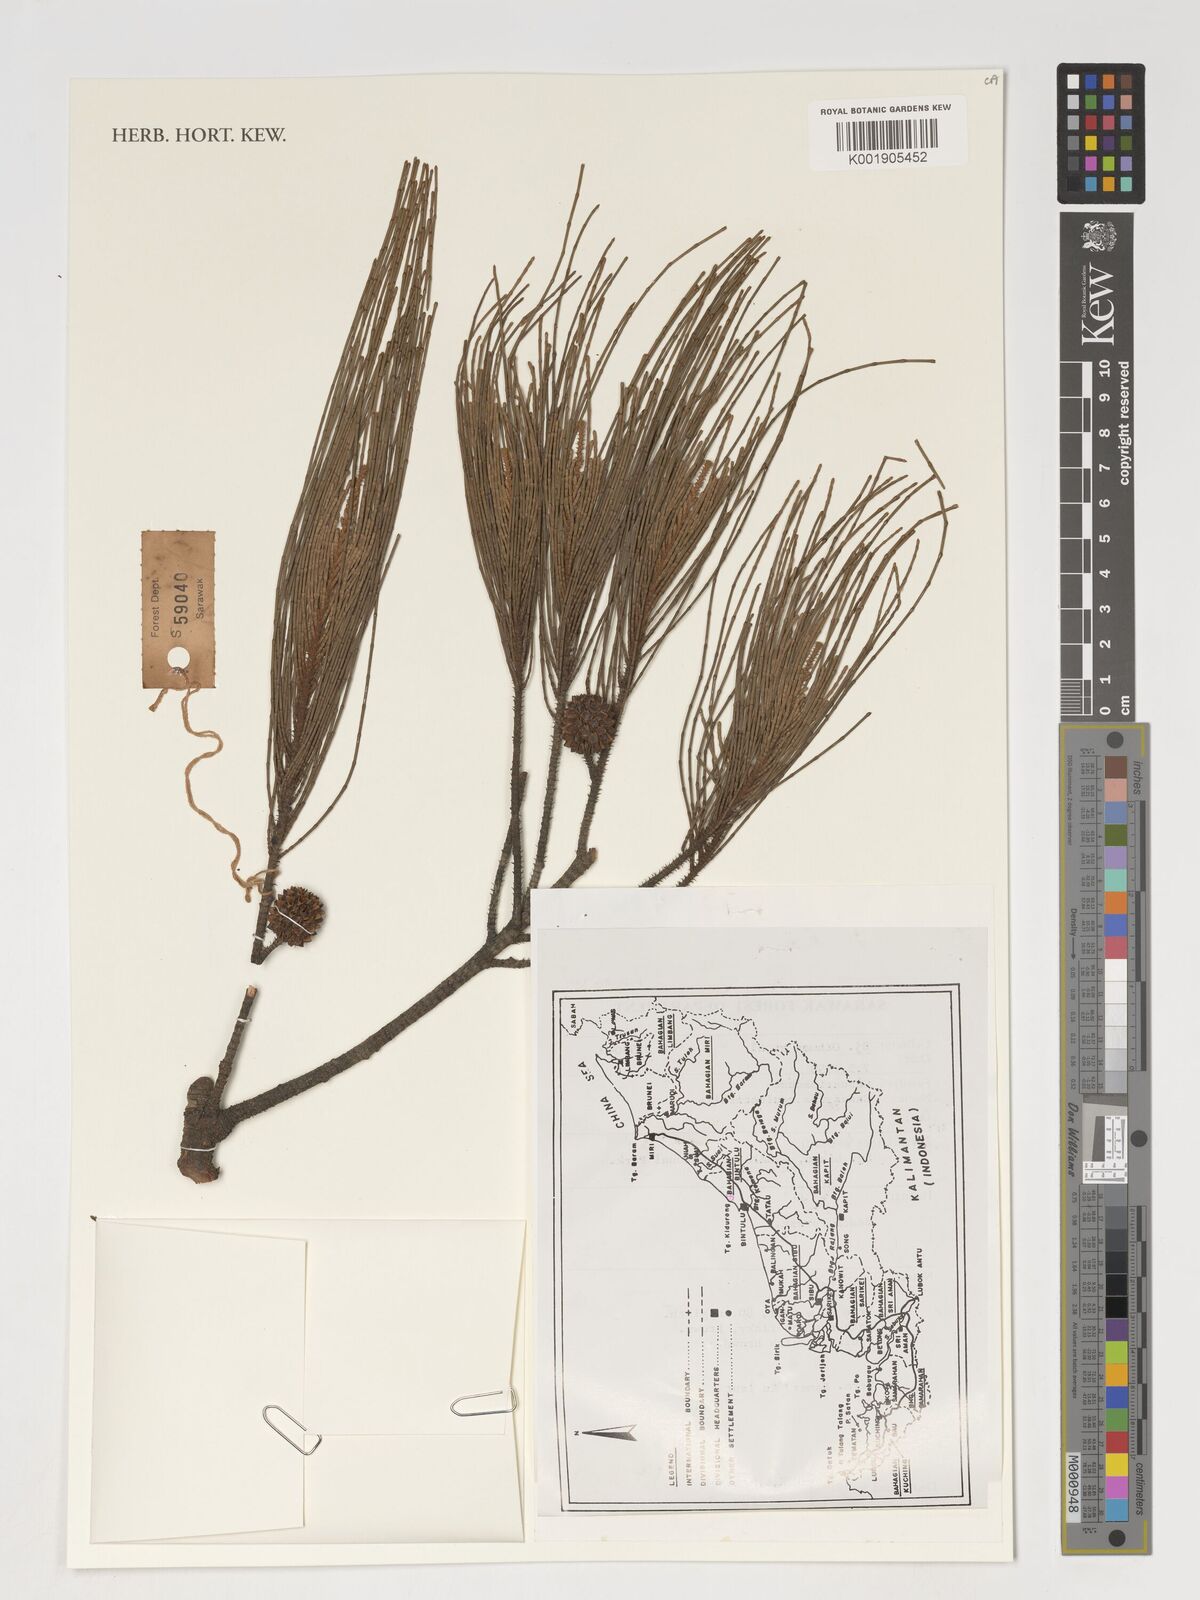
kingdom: Plantae
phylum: Tracheophyta
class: Magnoliopsida
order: Fagales
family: Casuarinaceae
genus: Casuarina
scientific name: Casuarina equisetifolia
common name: Beach sheoak
